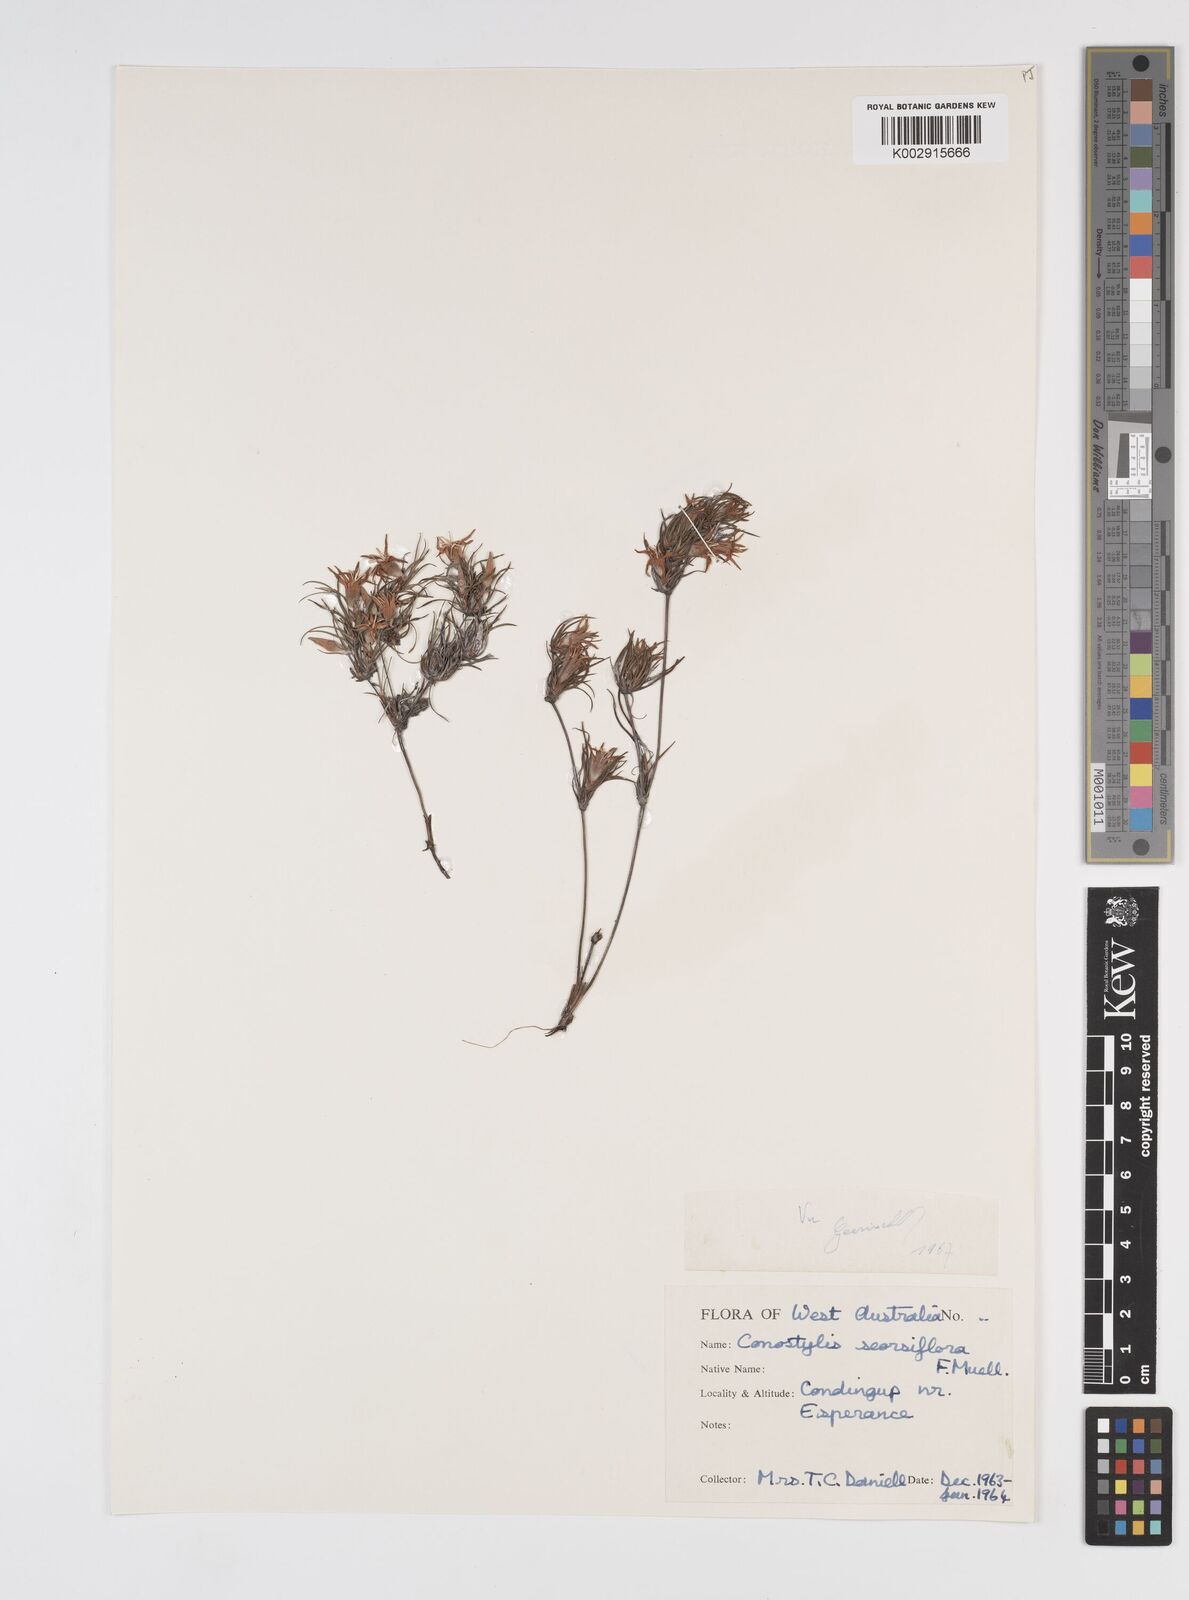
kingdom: Plantae
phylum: Tracheophyta
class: Liliopsida
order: Commelinales
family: Haemodoraceae
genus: Conostylis
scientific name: Conostylis seorsiflora
